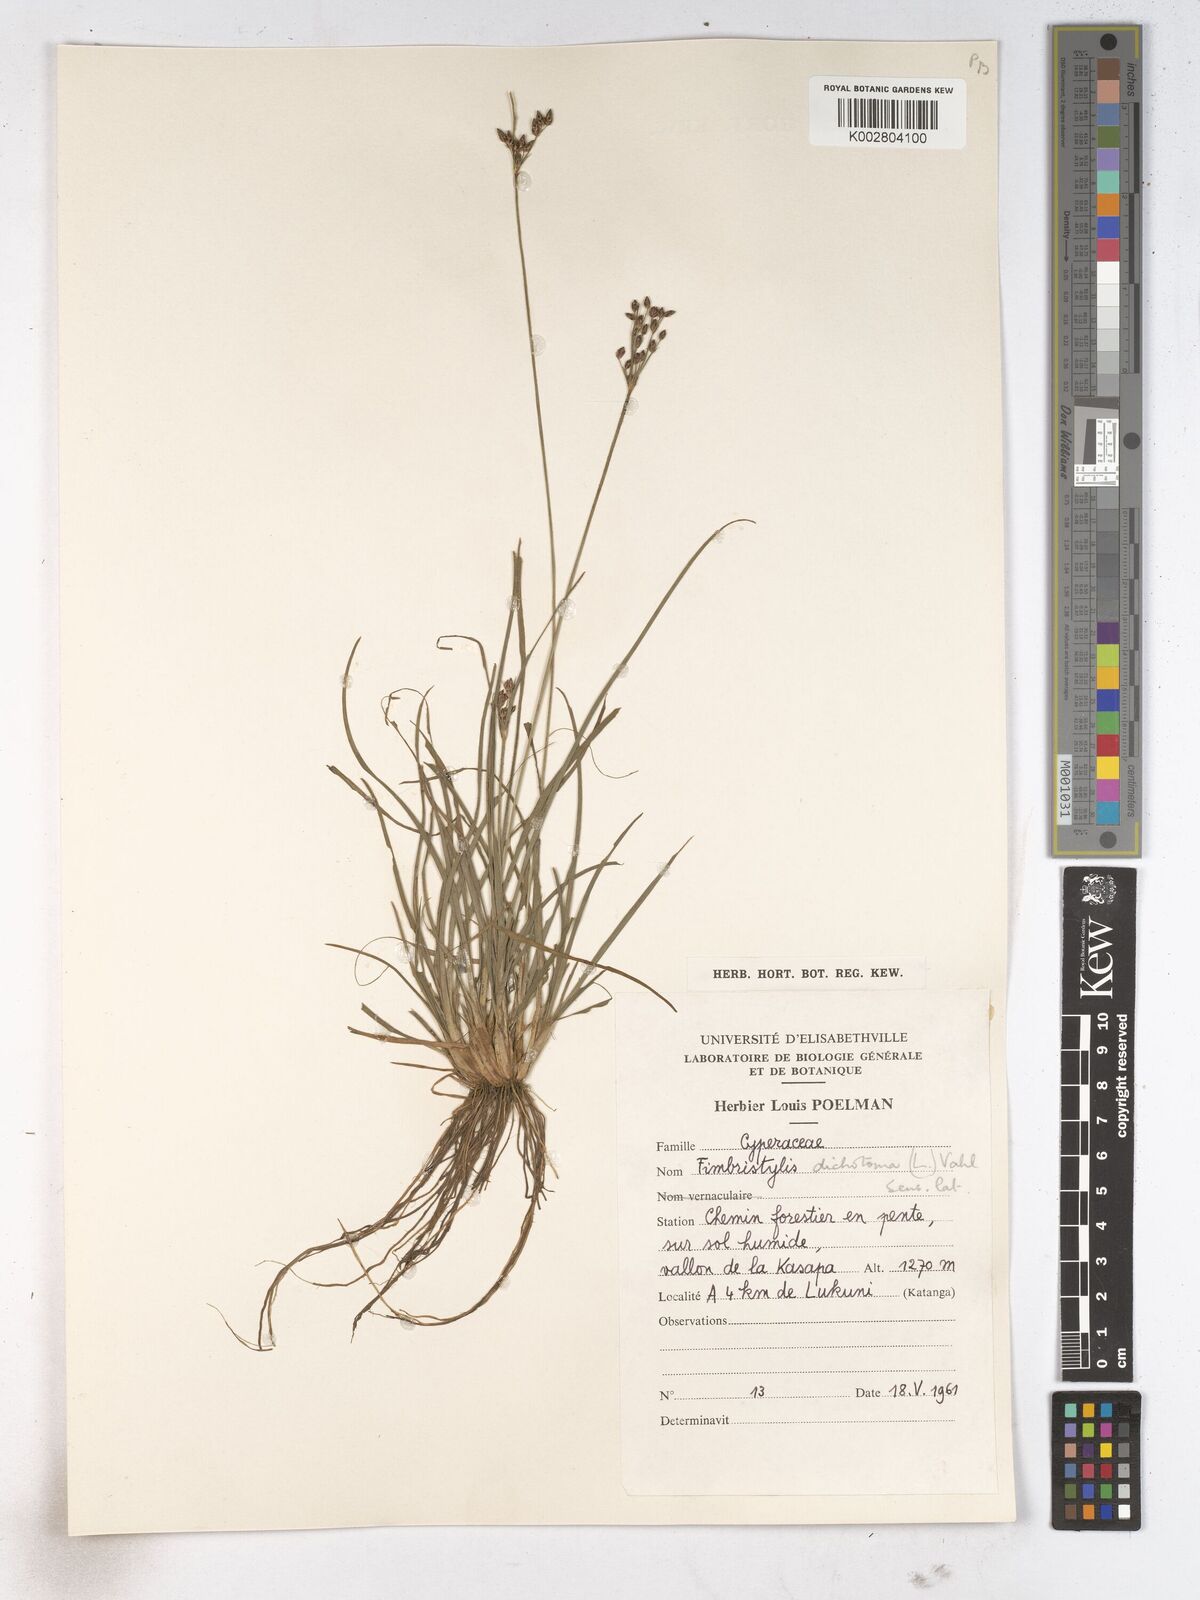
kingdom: Plantae
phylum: Tracheophyta
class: Liliopsida
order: Poales
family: Cyperaceae
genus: Fimbristylis
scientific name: Fimbristylis dichotoma
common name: Forked fimbry
